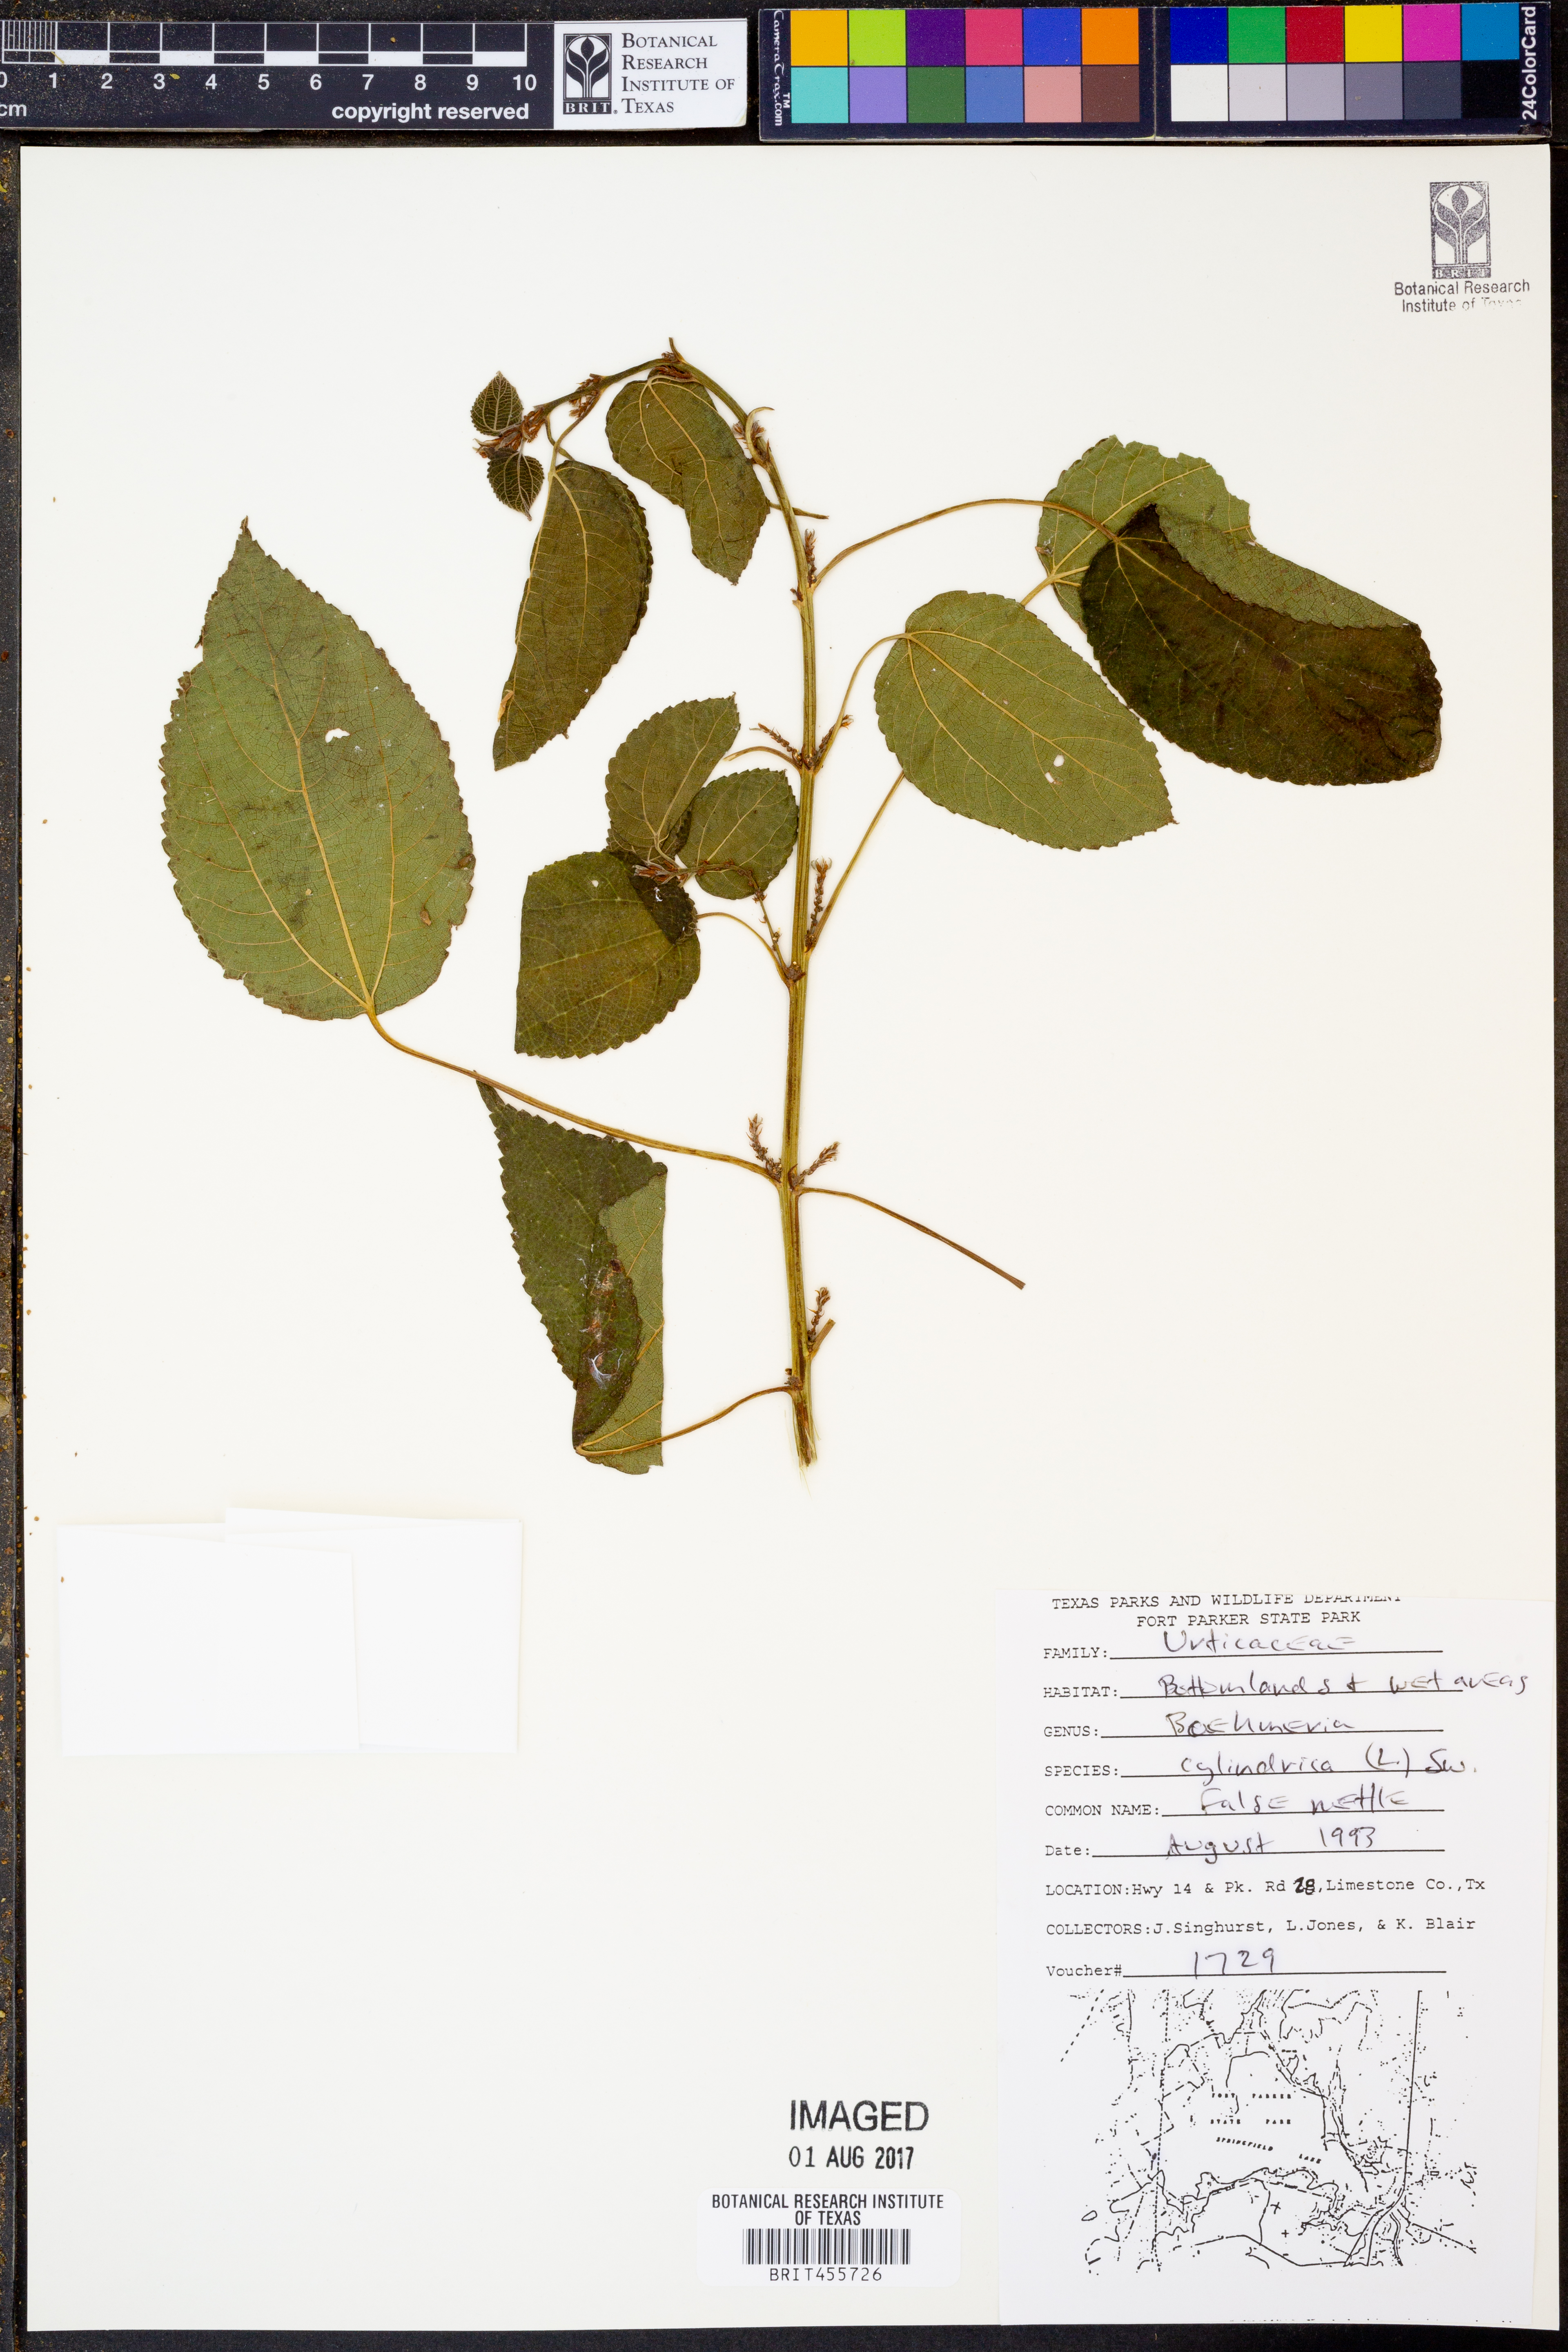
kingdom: Plantae
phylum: Tracheophyta
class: Magnoliopsida
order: Rosales
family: Urticaceae
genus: Boehmeria
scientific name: Boehmeria cylindrica
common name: Bog-hemp
